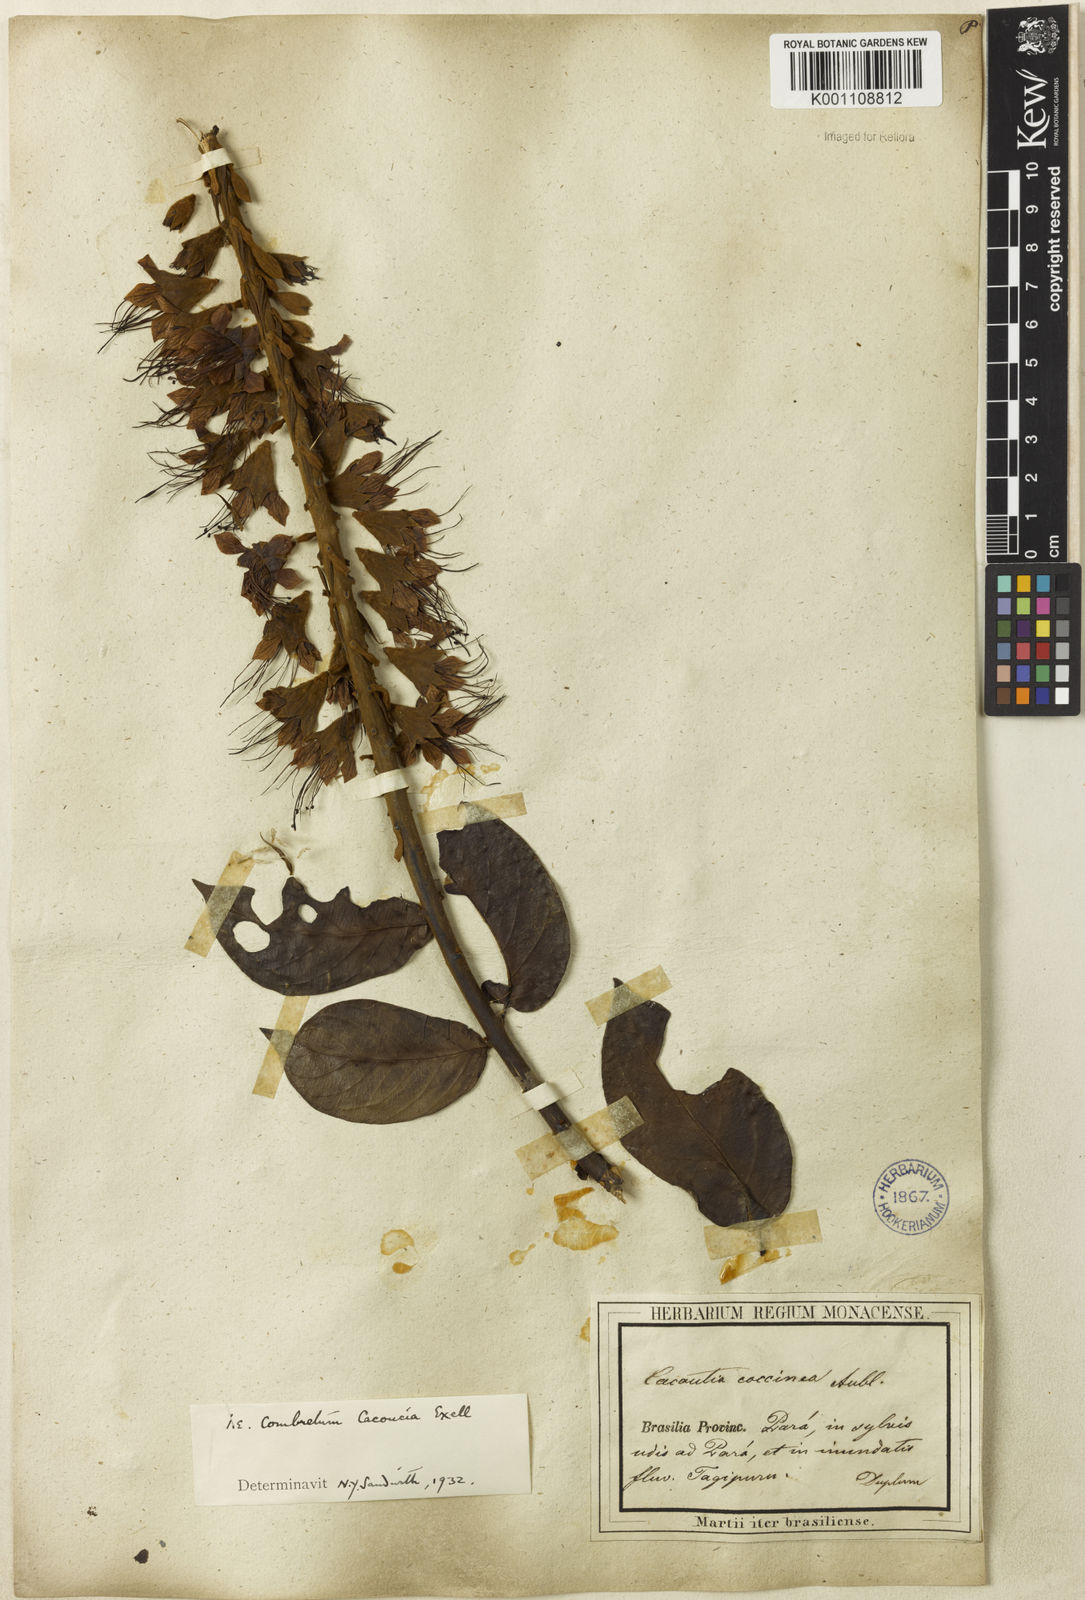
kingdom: Plantae
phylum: Tracheophyta
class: Magnoliopsida
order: Myrtales
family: Combretaceae
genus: Combretum
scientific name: Combretum
